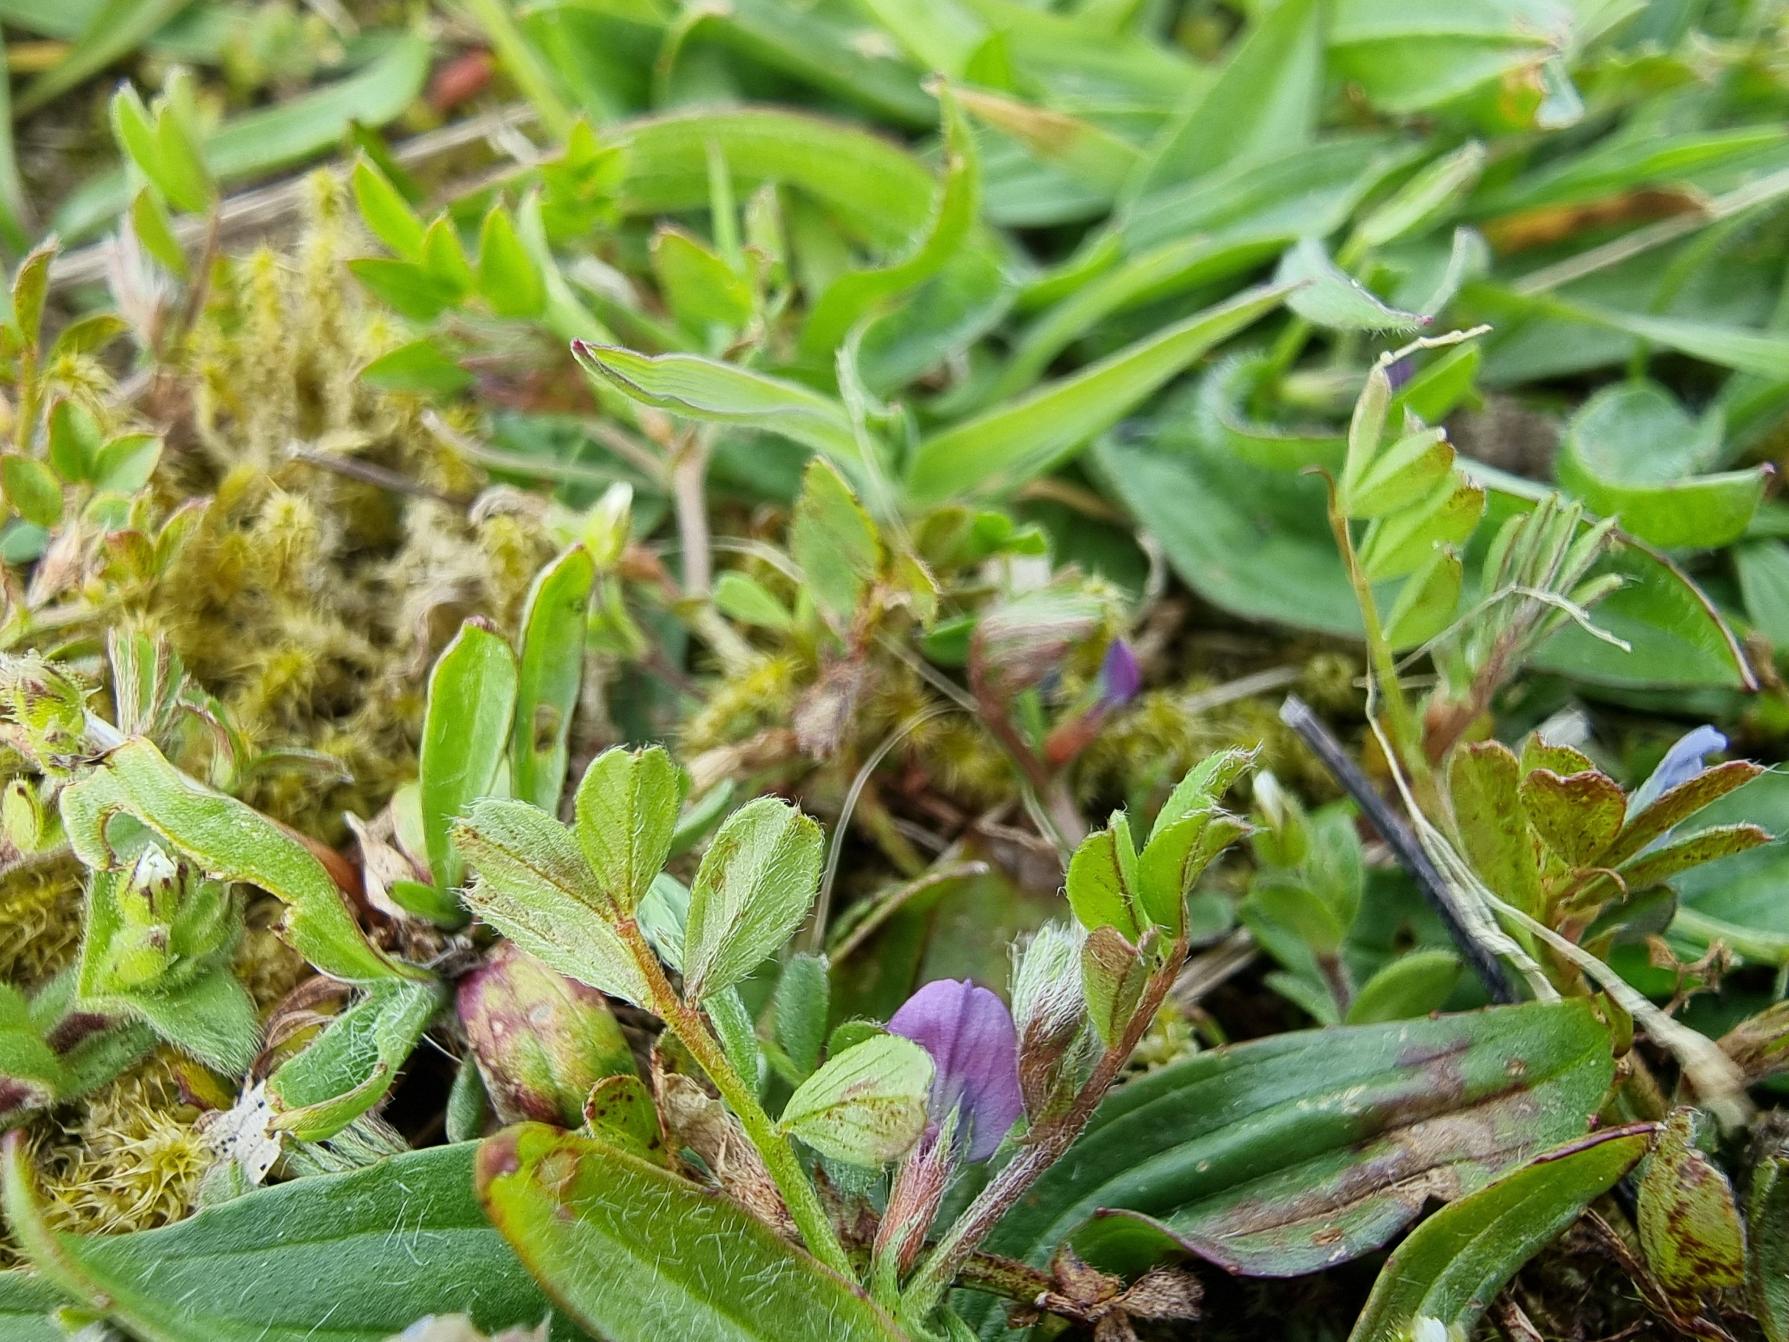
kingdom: Plantae
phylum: Tracheophyta
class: Magnoliopsida
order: Fabales
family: Fabaceae
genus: Vicia
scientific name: Vicia lathyroides
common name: Vår-vikke
